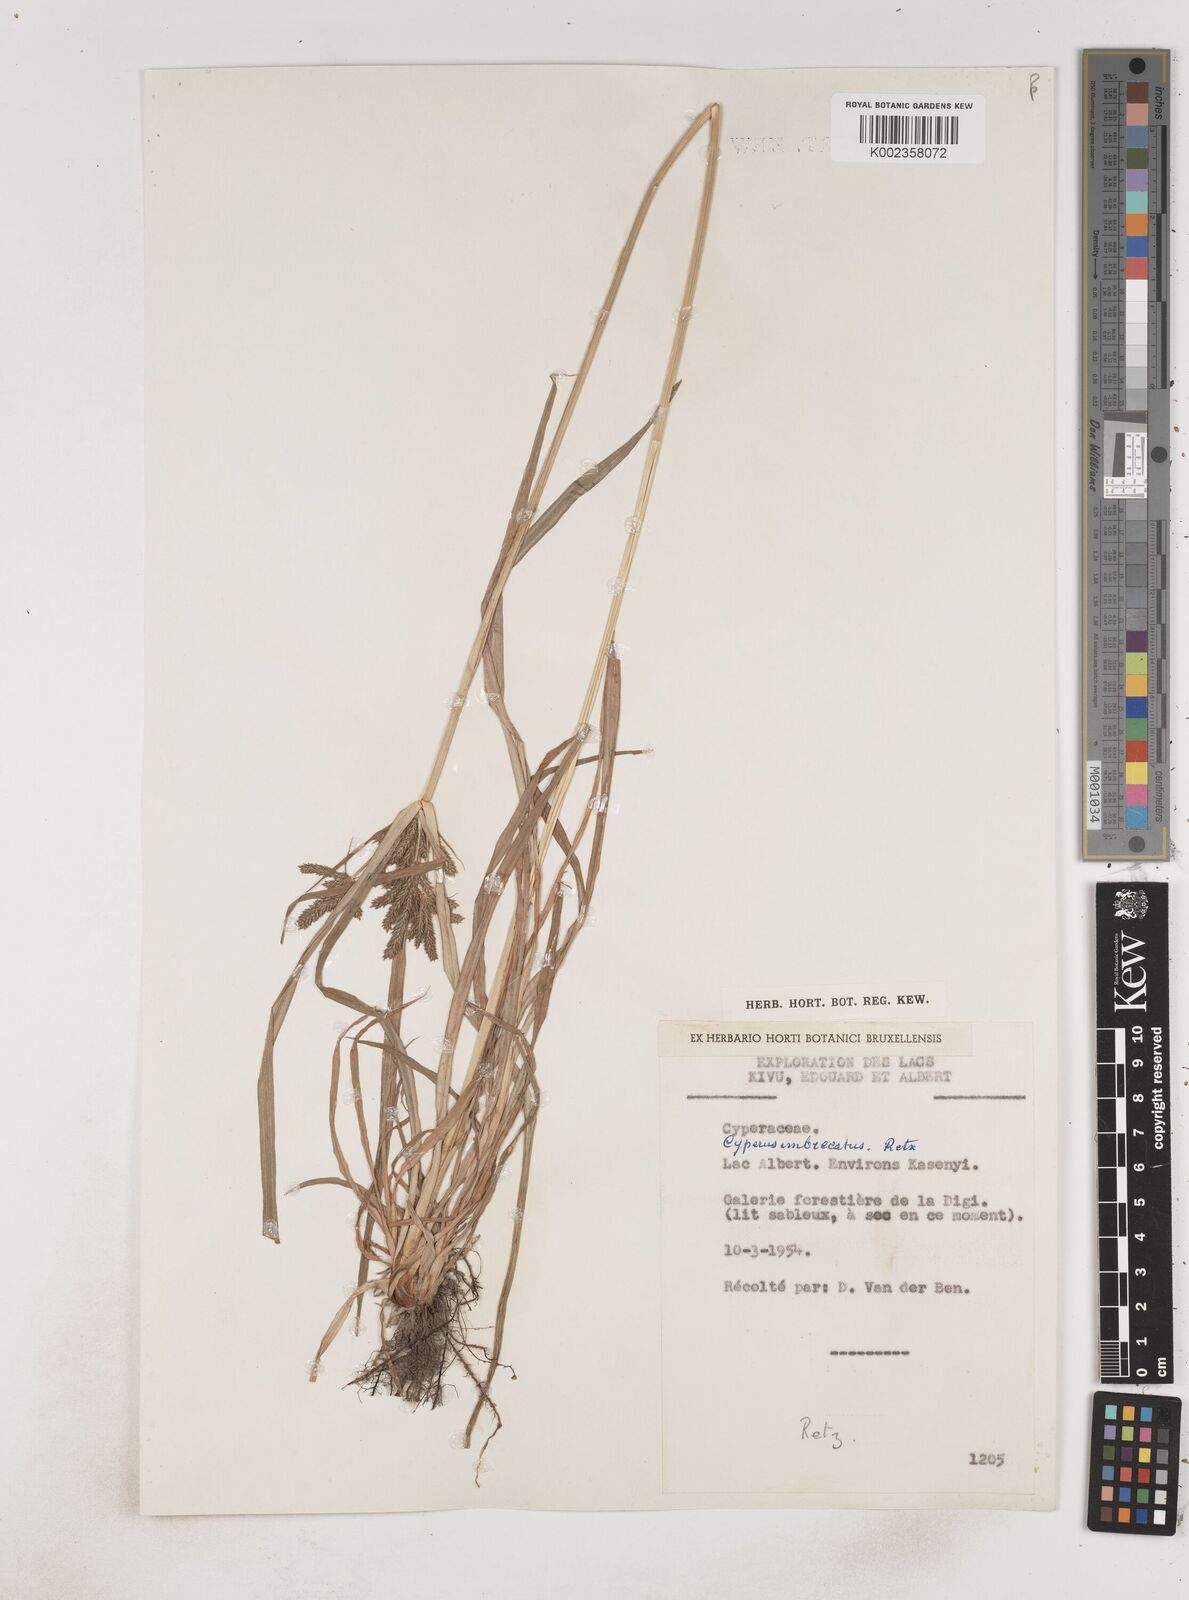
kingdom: Plantae
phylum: Tracheophyta
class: Liliopsida
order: Poales
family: Cyperaceae
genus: Cyperus
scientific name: Cyperus imbricatus
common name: Shingle flatsedge
